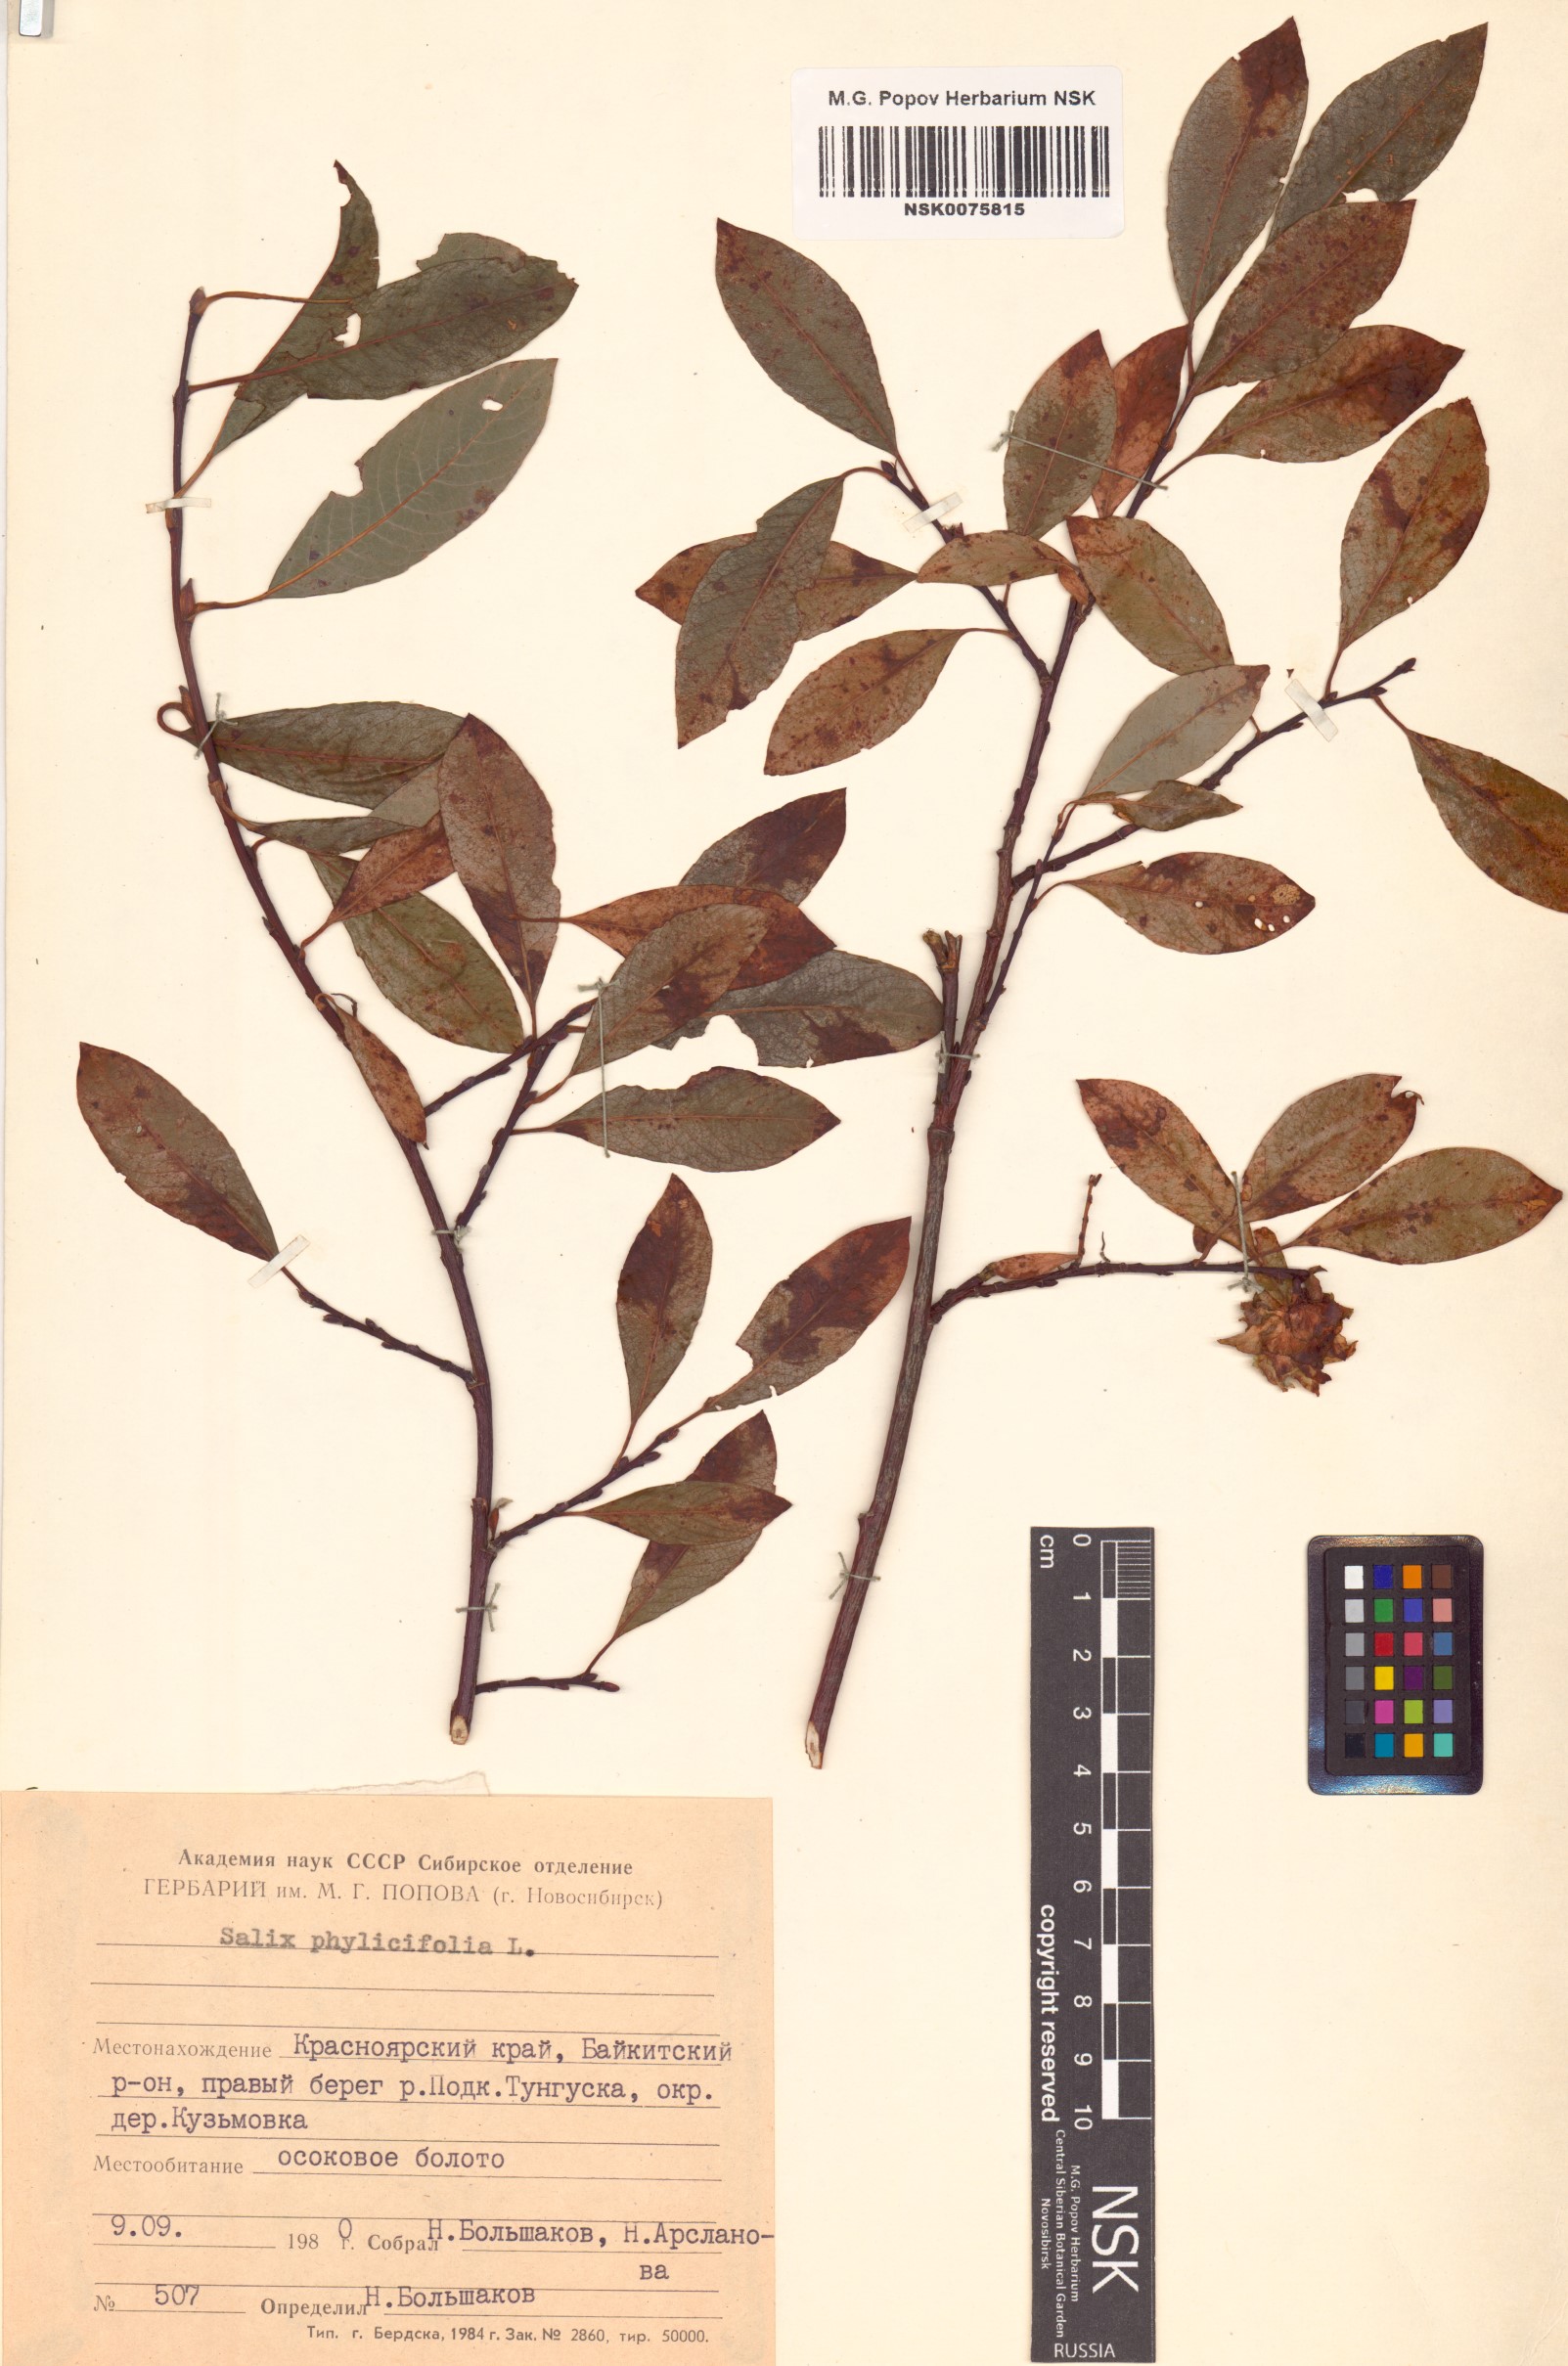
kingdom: Plantae
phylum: Tracheophyta
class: Magnoliopsida
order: Malpighiales
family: Salicaceae
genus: Salix
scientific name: Salix phylicifolia
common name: Tea-leaved willow
